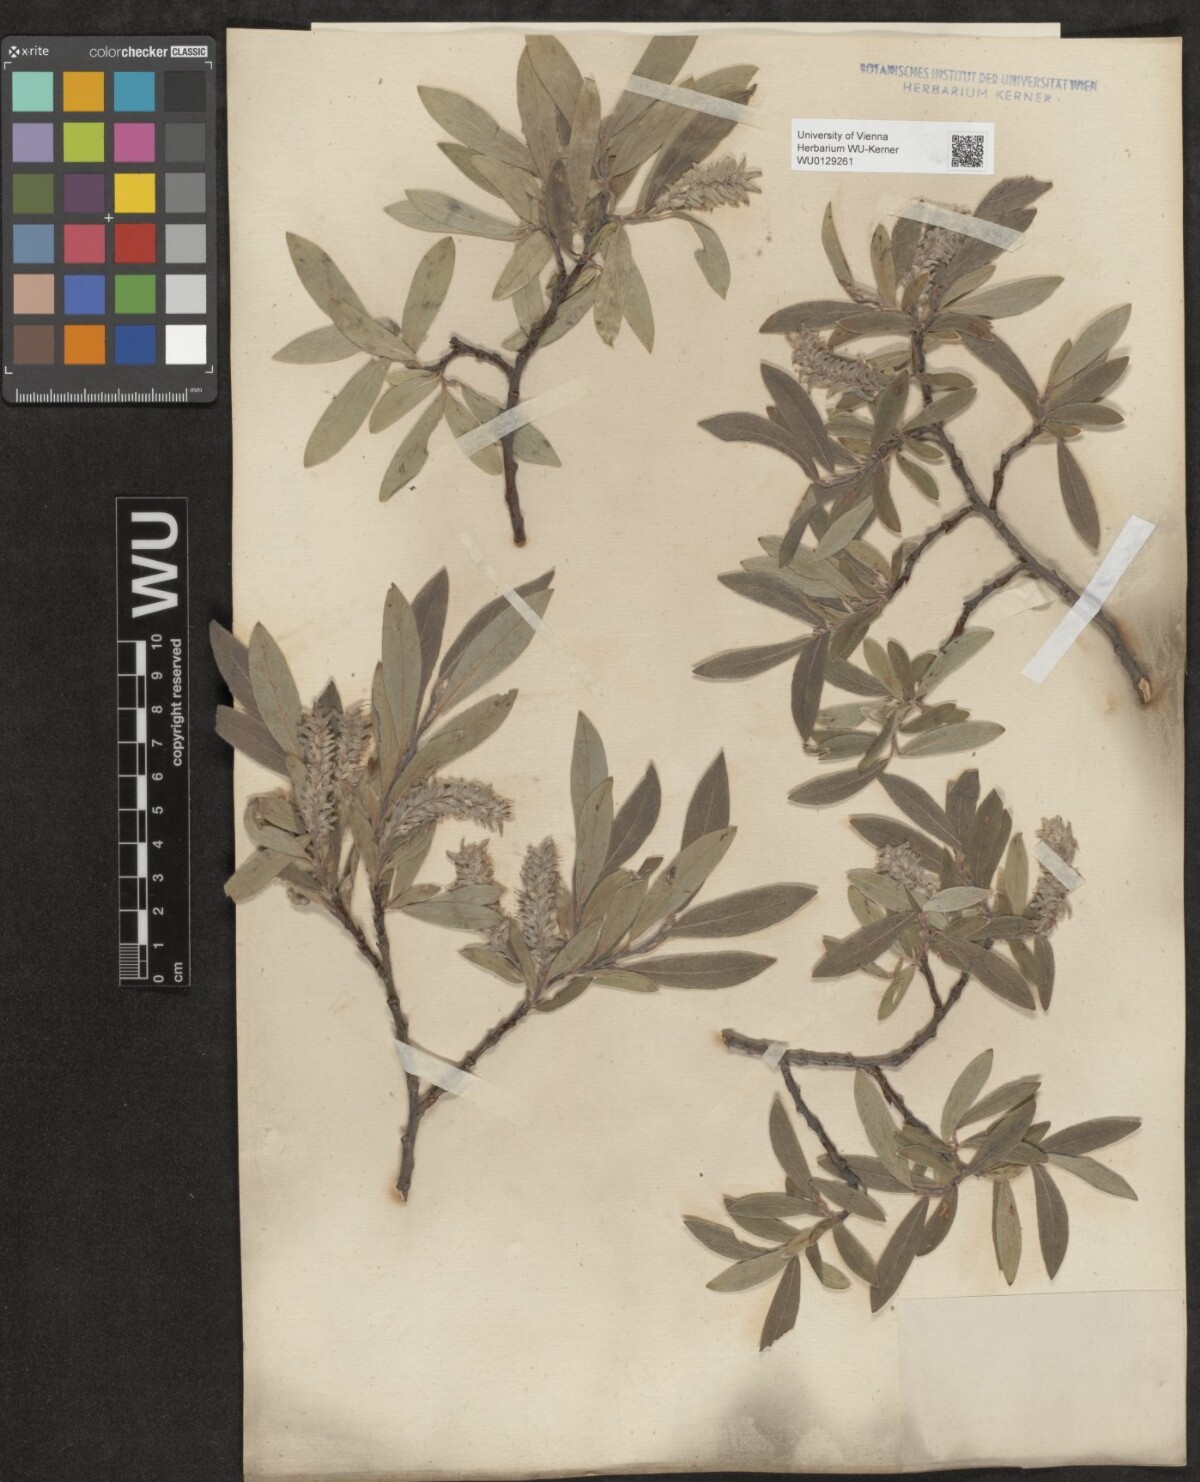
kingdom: Plantae
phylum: Tracheophyta
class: Magnoliopsida
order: Malpighiales
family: Salicaceae
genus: Salix
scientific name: Salix glauca
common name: Glaucous willow
